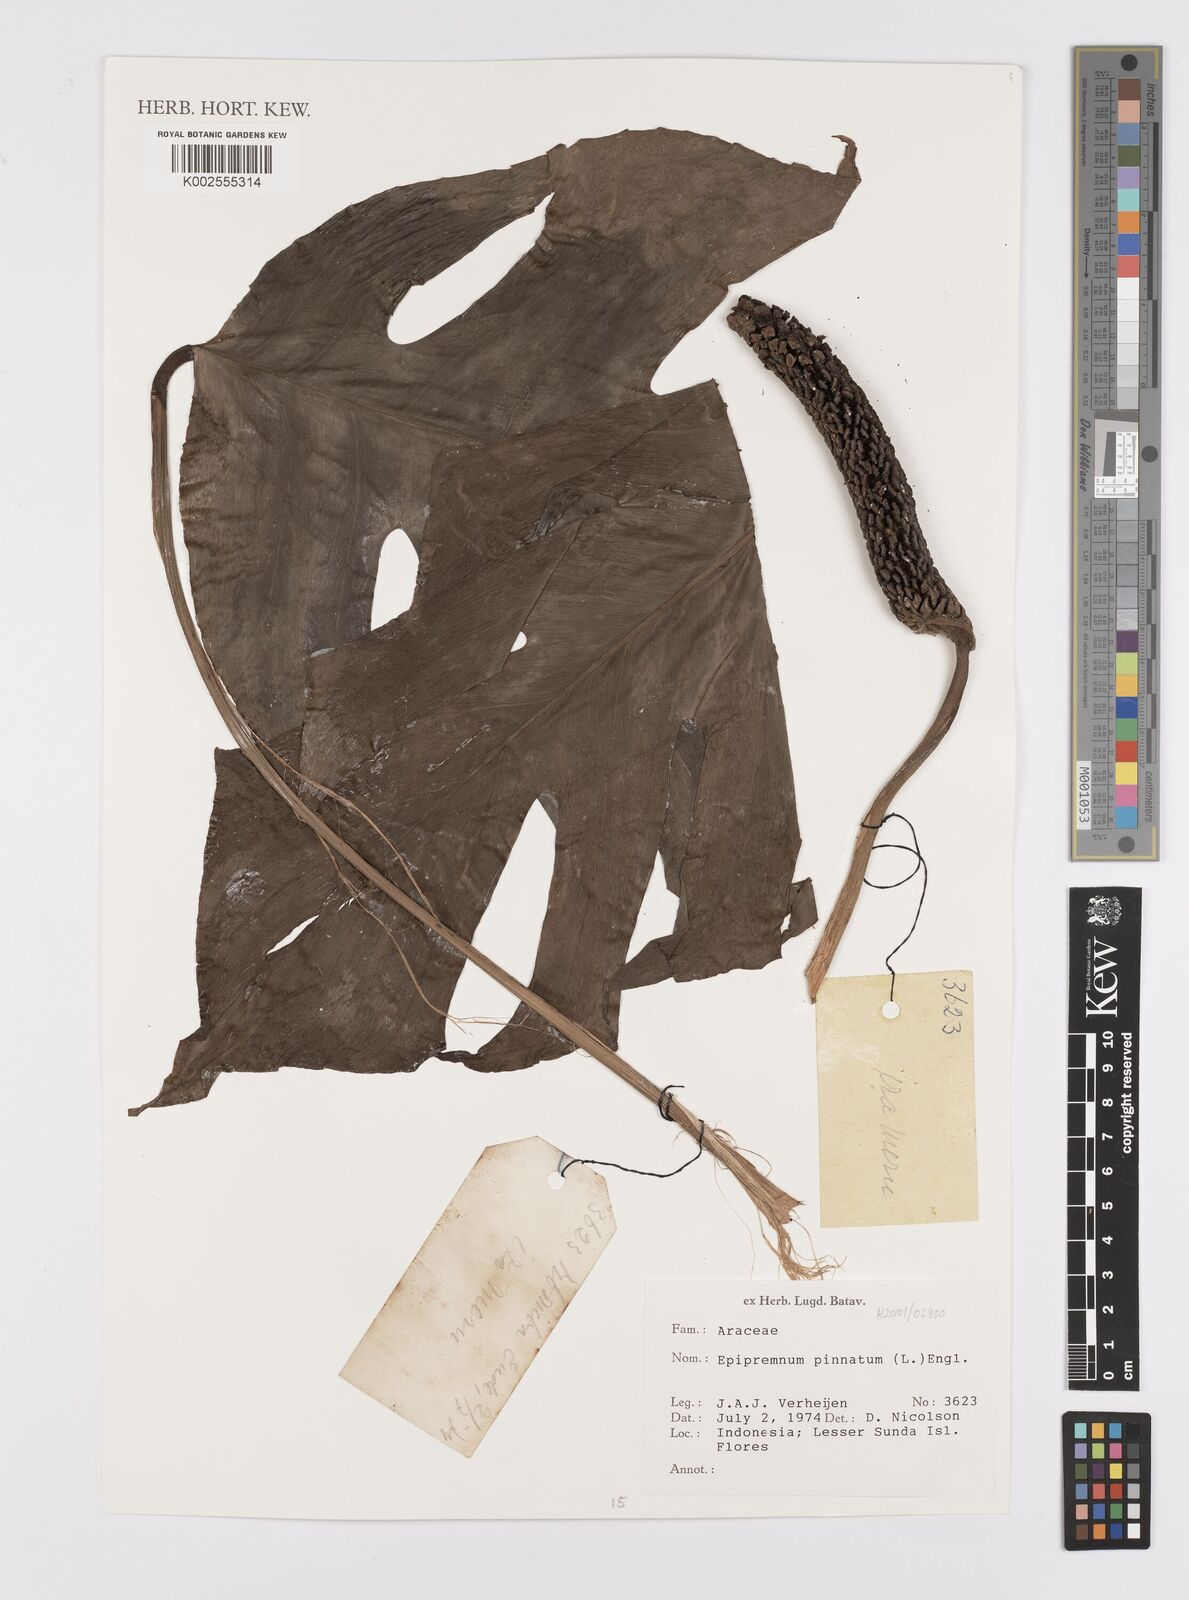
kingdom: Plantae
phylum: Tracheophyta
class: Liliopsida
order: Alismatales
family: Araceae
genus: Epipremnum
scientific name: Epipremnum pinnatum
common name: Centipede tongavine
